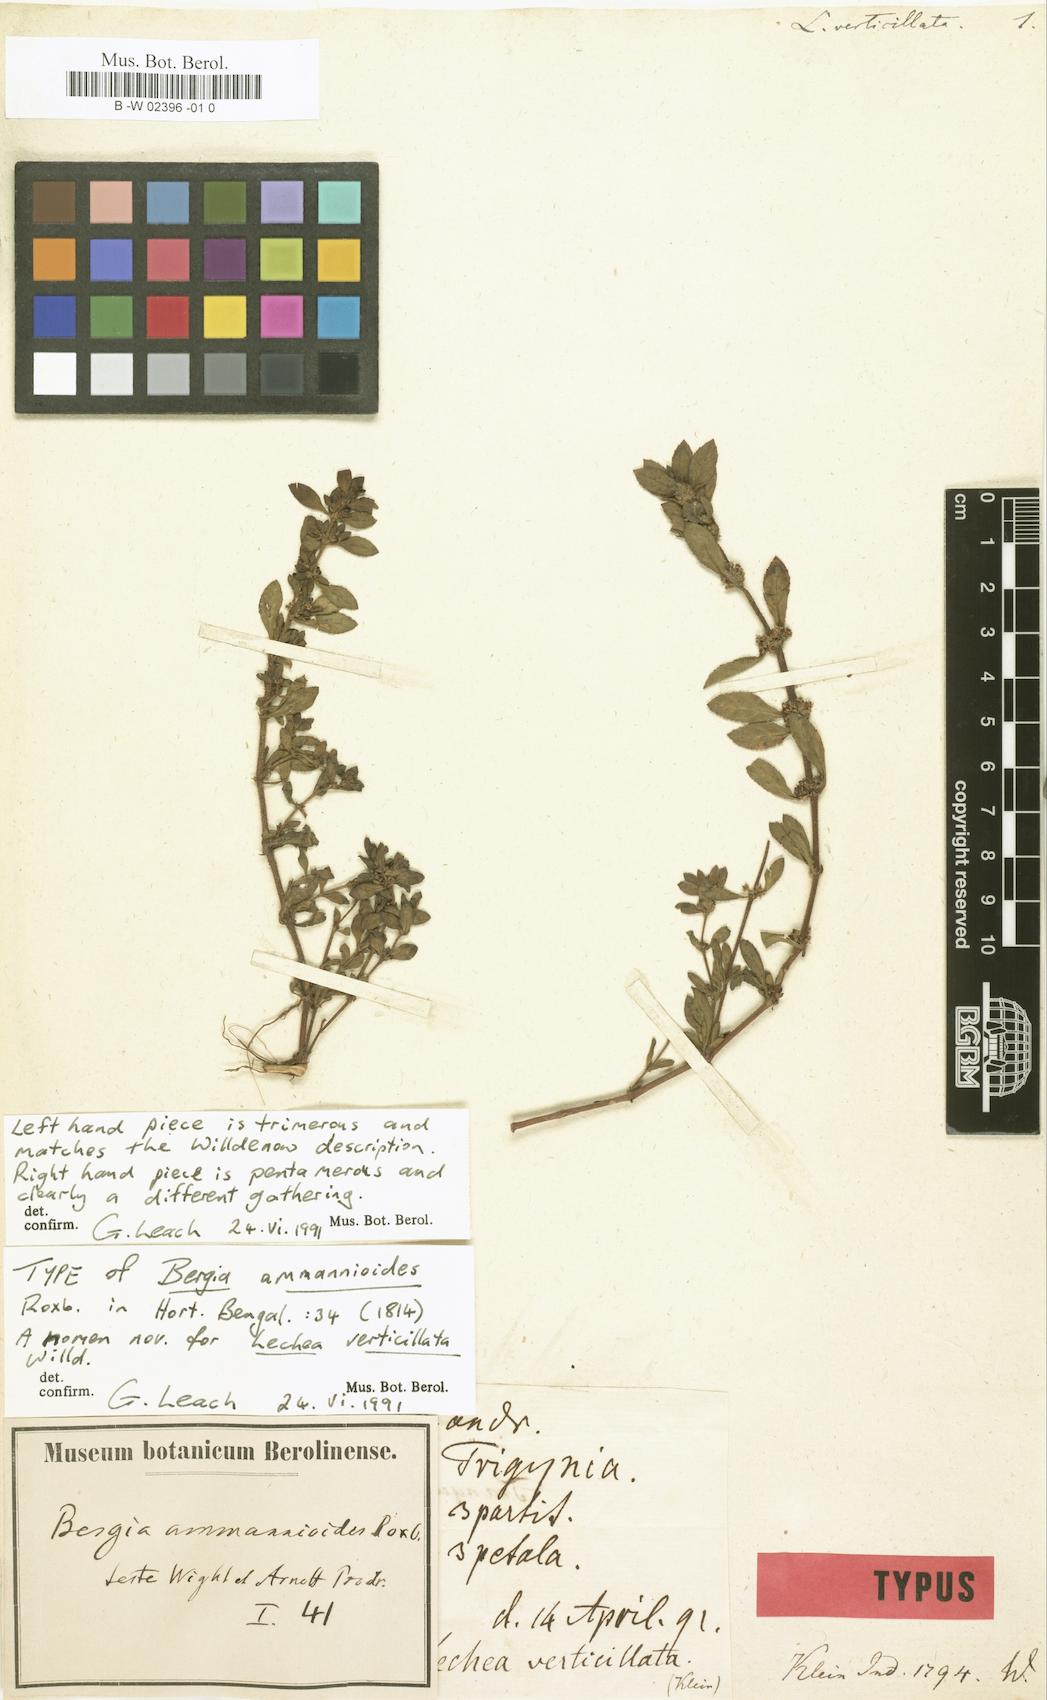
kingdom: Plantae
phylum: Tracheophyta
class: Magnoliopsida
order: Malpighiales
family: Elatinaceae
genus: Bergia
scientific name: Bergia ammannioides
